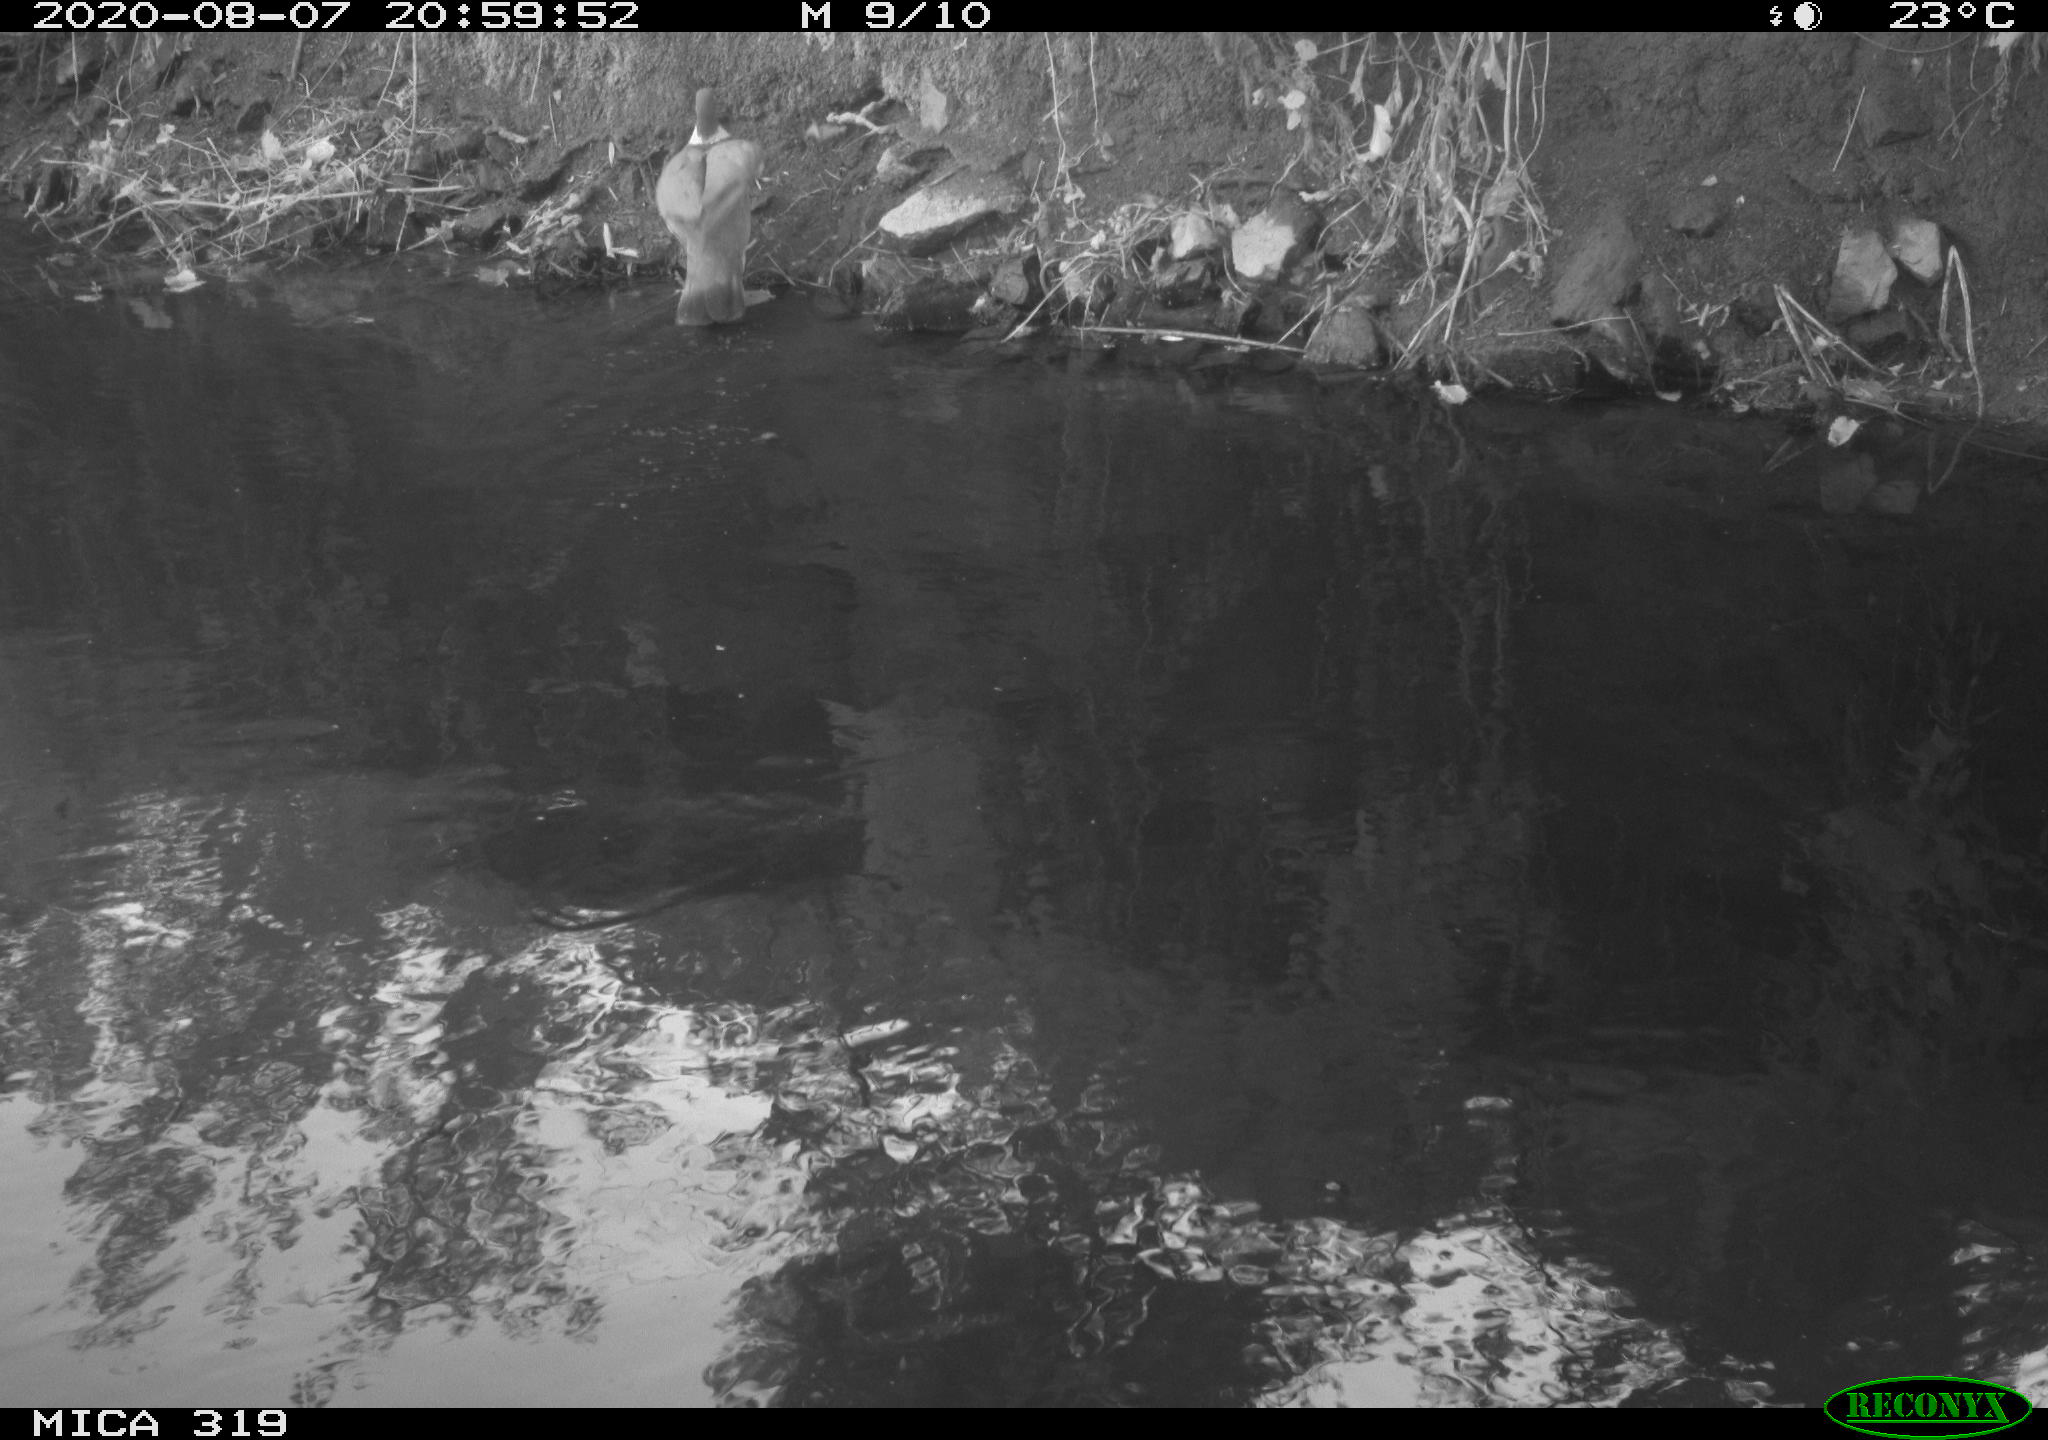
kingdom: Animalia
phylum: Chordata
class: Aves
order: Columbiformes
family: Columbidae
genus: Columba
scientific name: Columba palumbus
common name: Common wood pigeon
